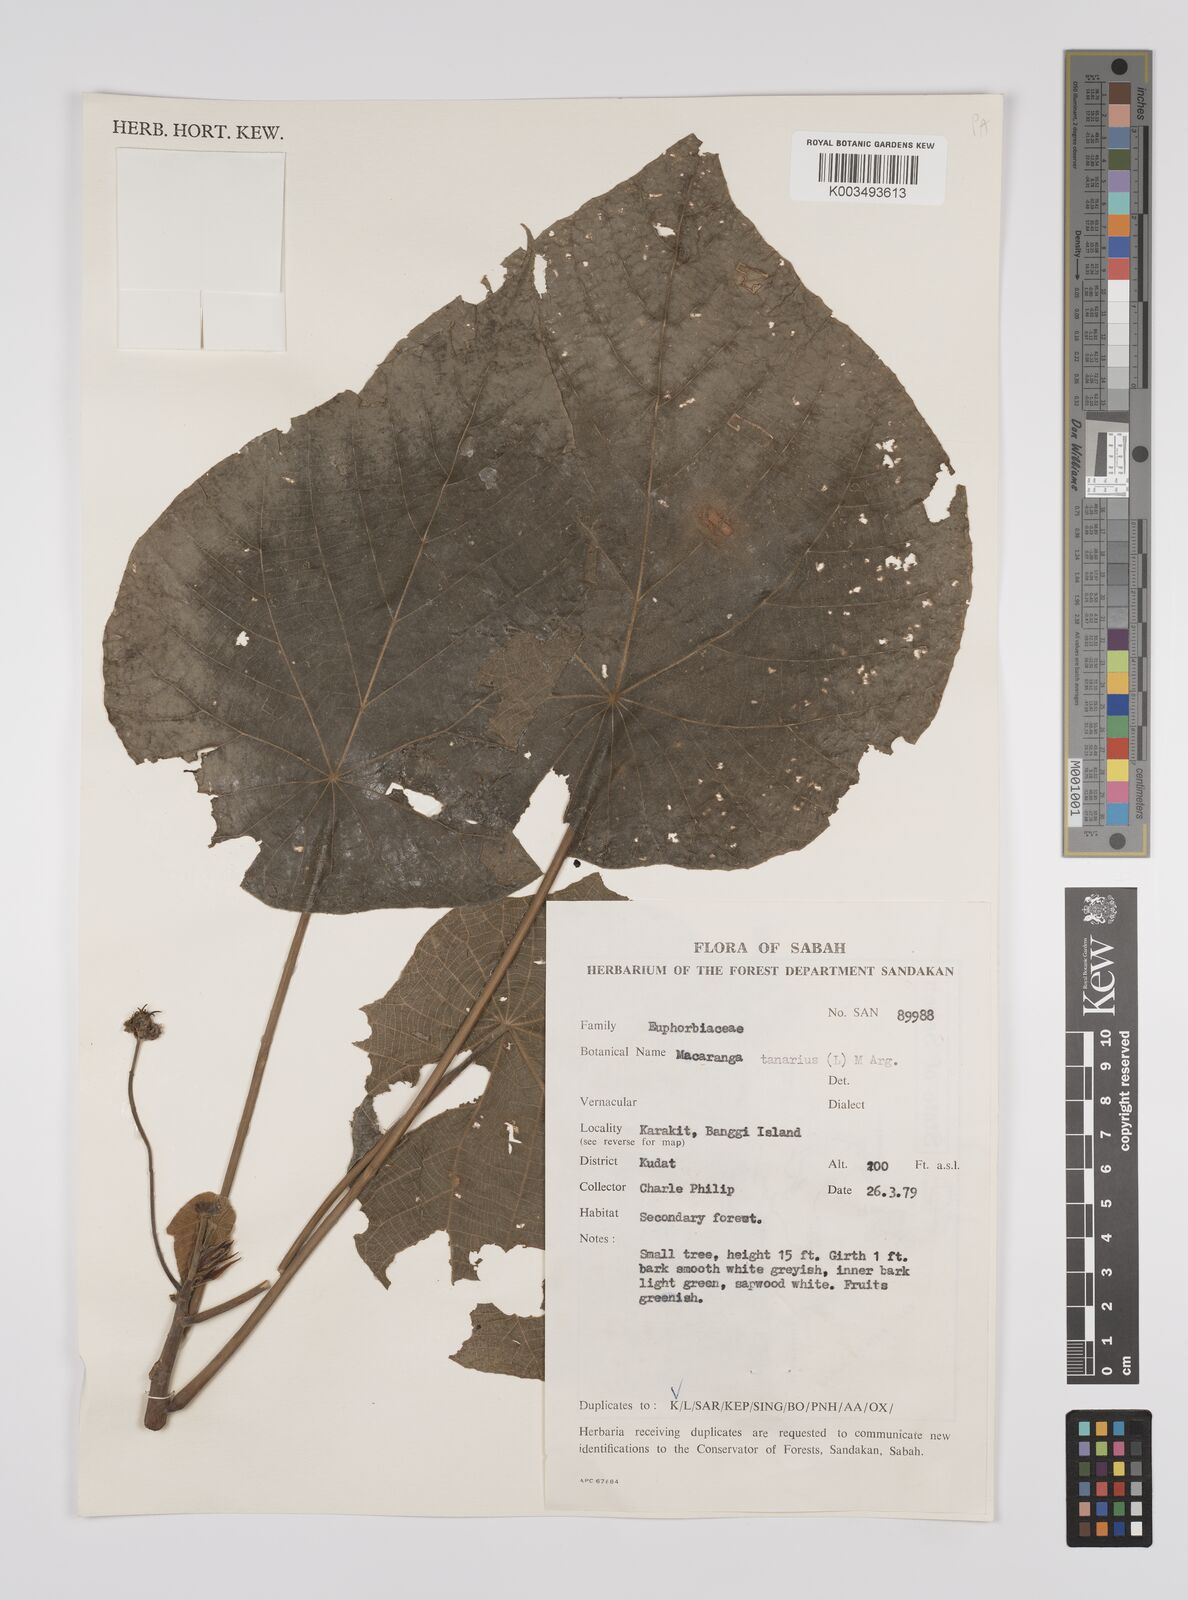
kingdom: Plantae
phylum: Tracheophyta
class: Magnoliopsida
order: Malpighiales
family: Euphorbiaceae
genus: Macaranga
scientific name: Macaranga tanarius
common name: Parasol leaf tree
